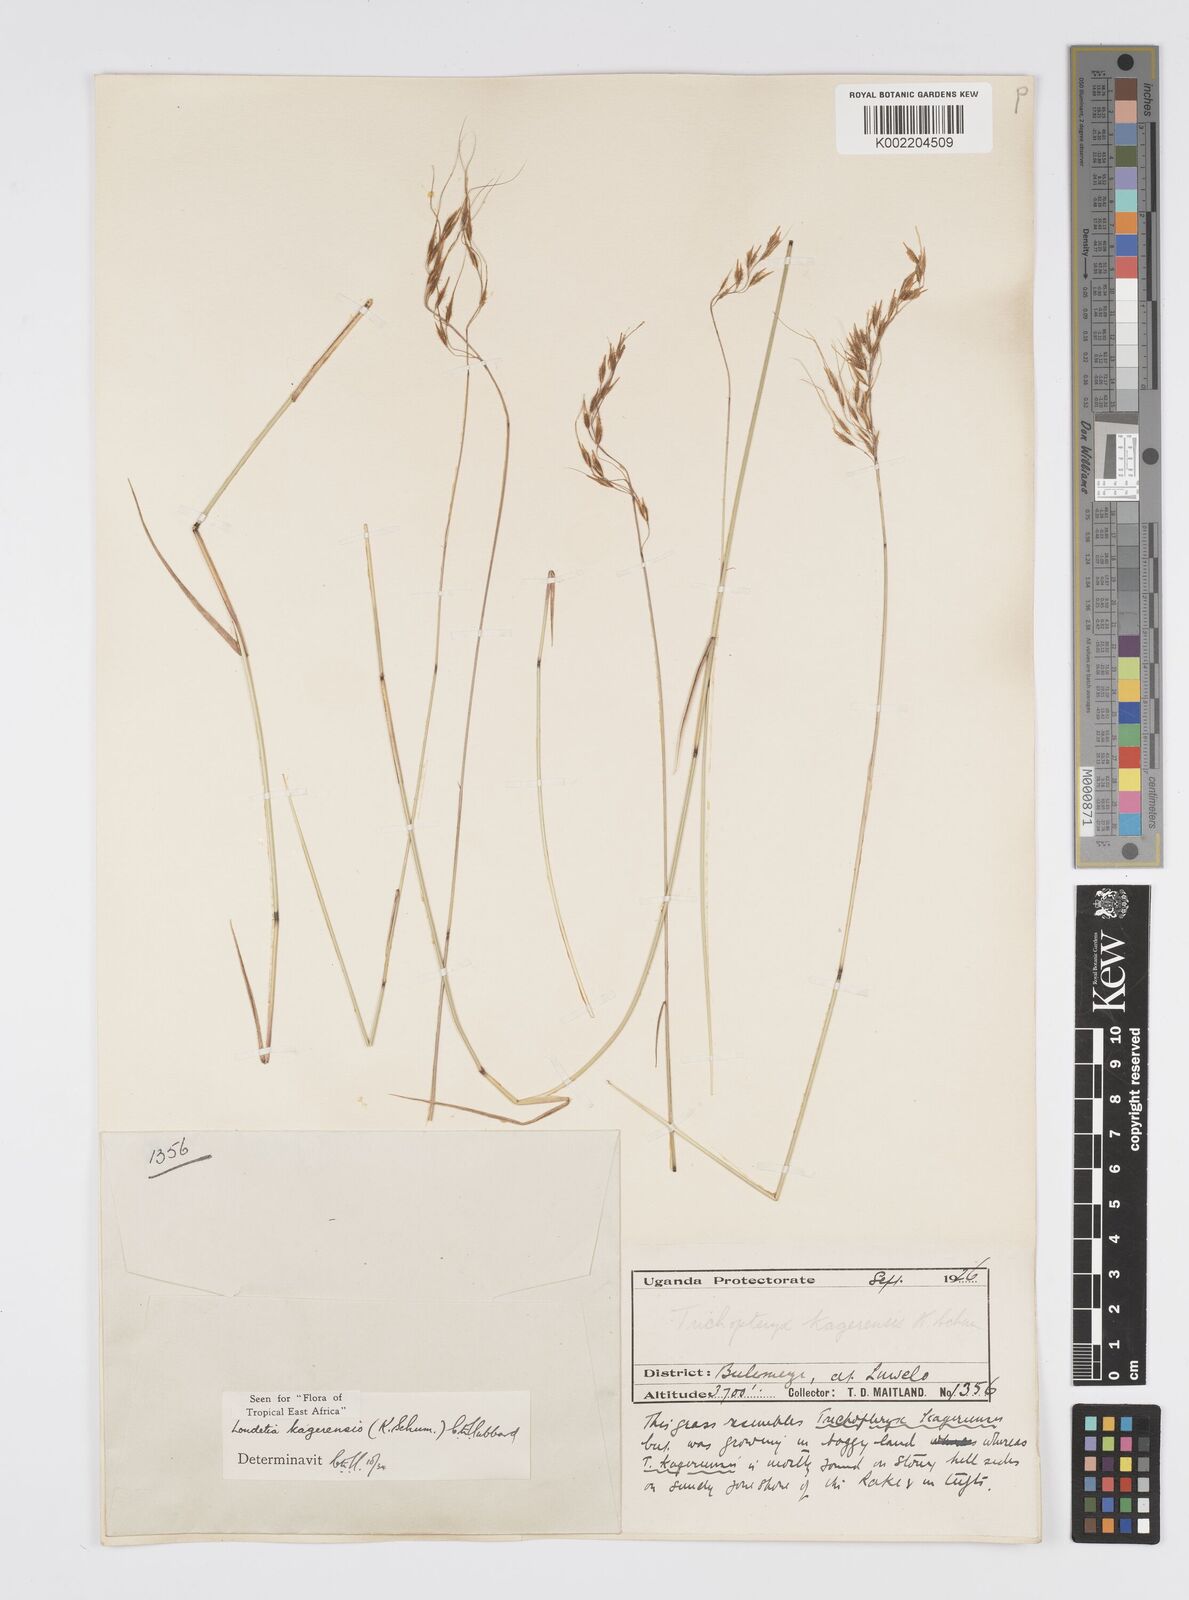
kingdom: Plantae
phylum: Tracheophyta
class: Liliopsida
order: Poales
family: Poaceae
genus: Loudetia
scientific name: Loudetia kagerensis
